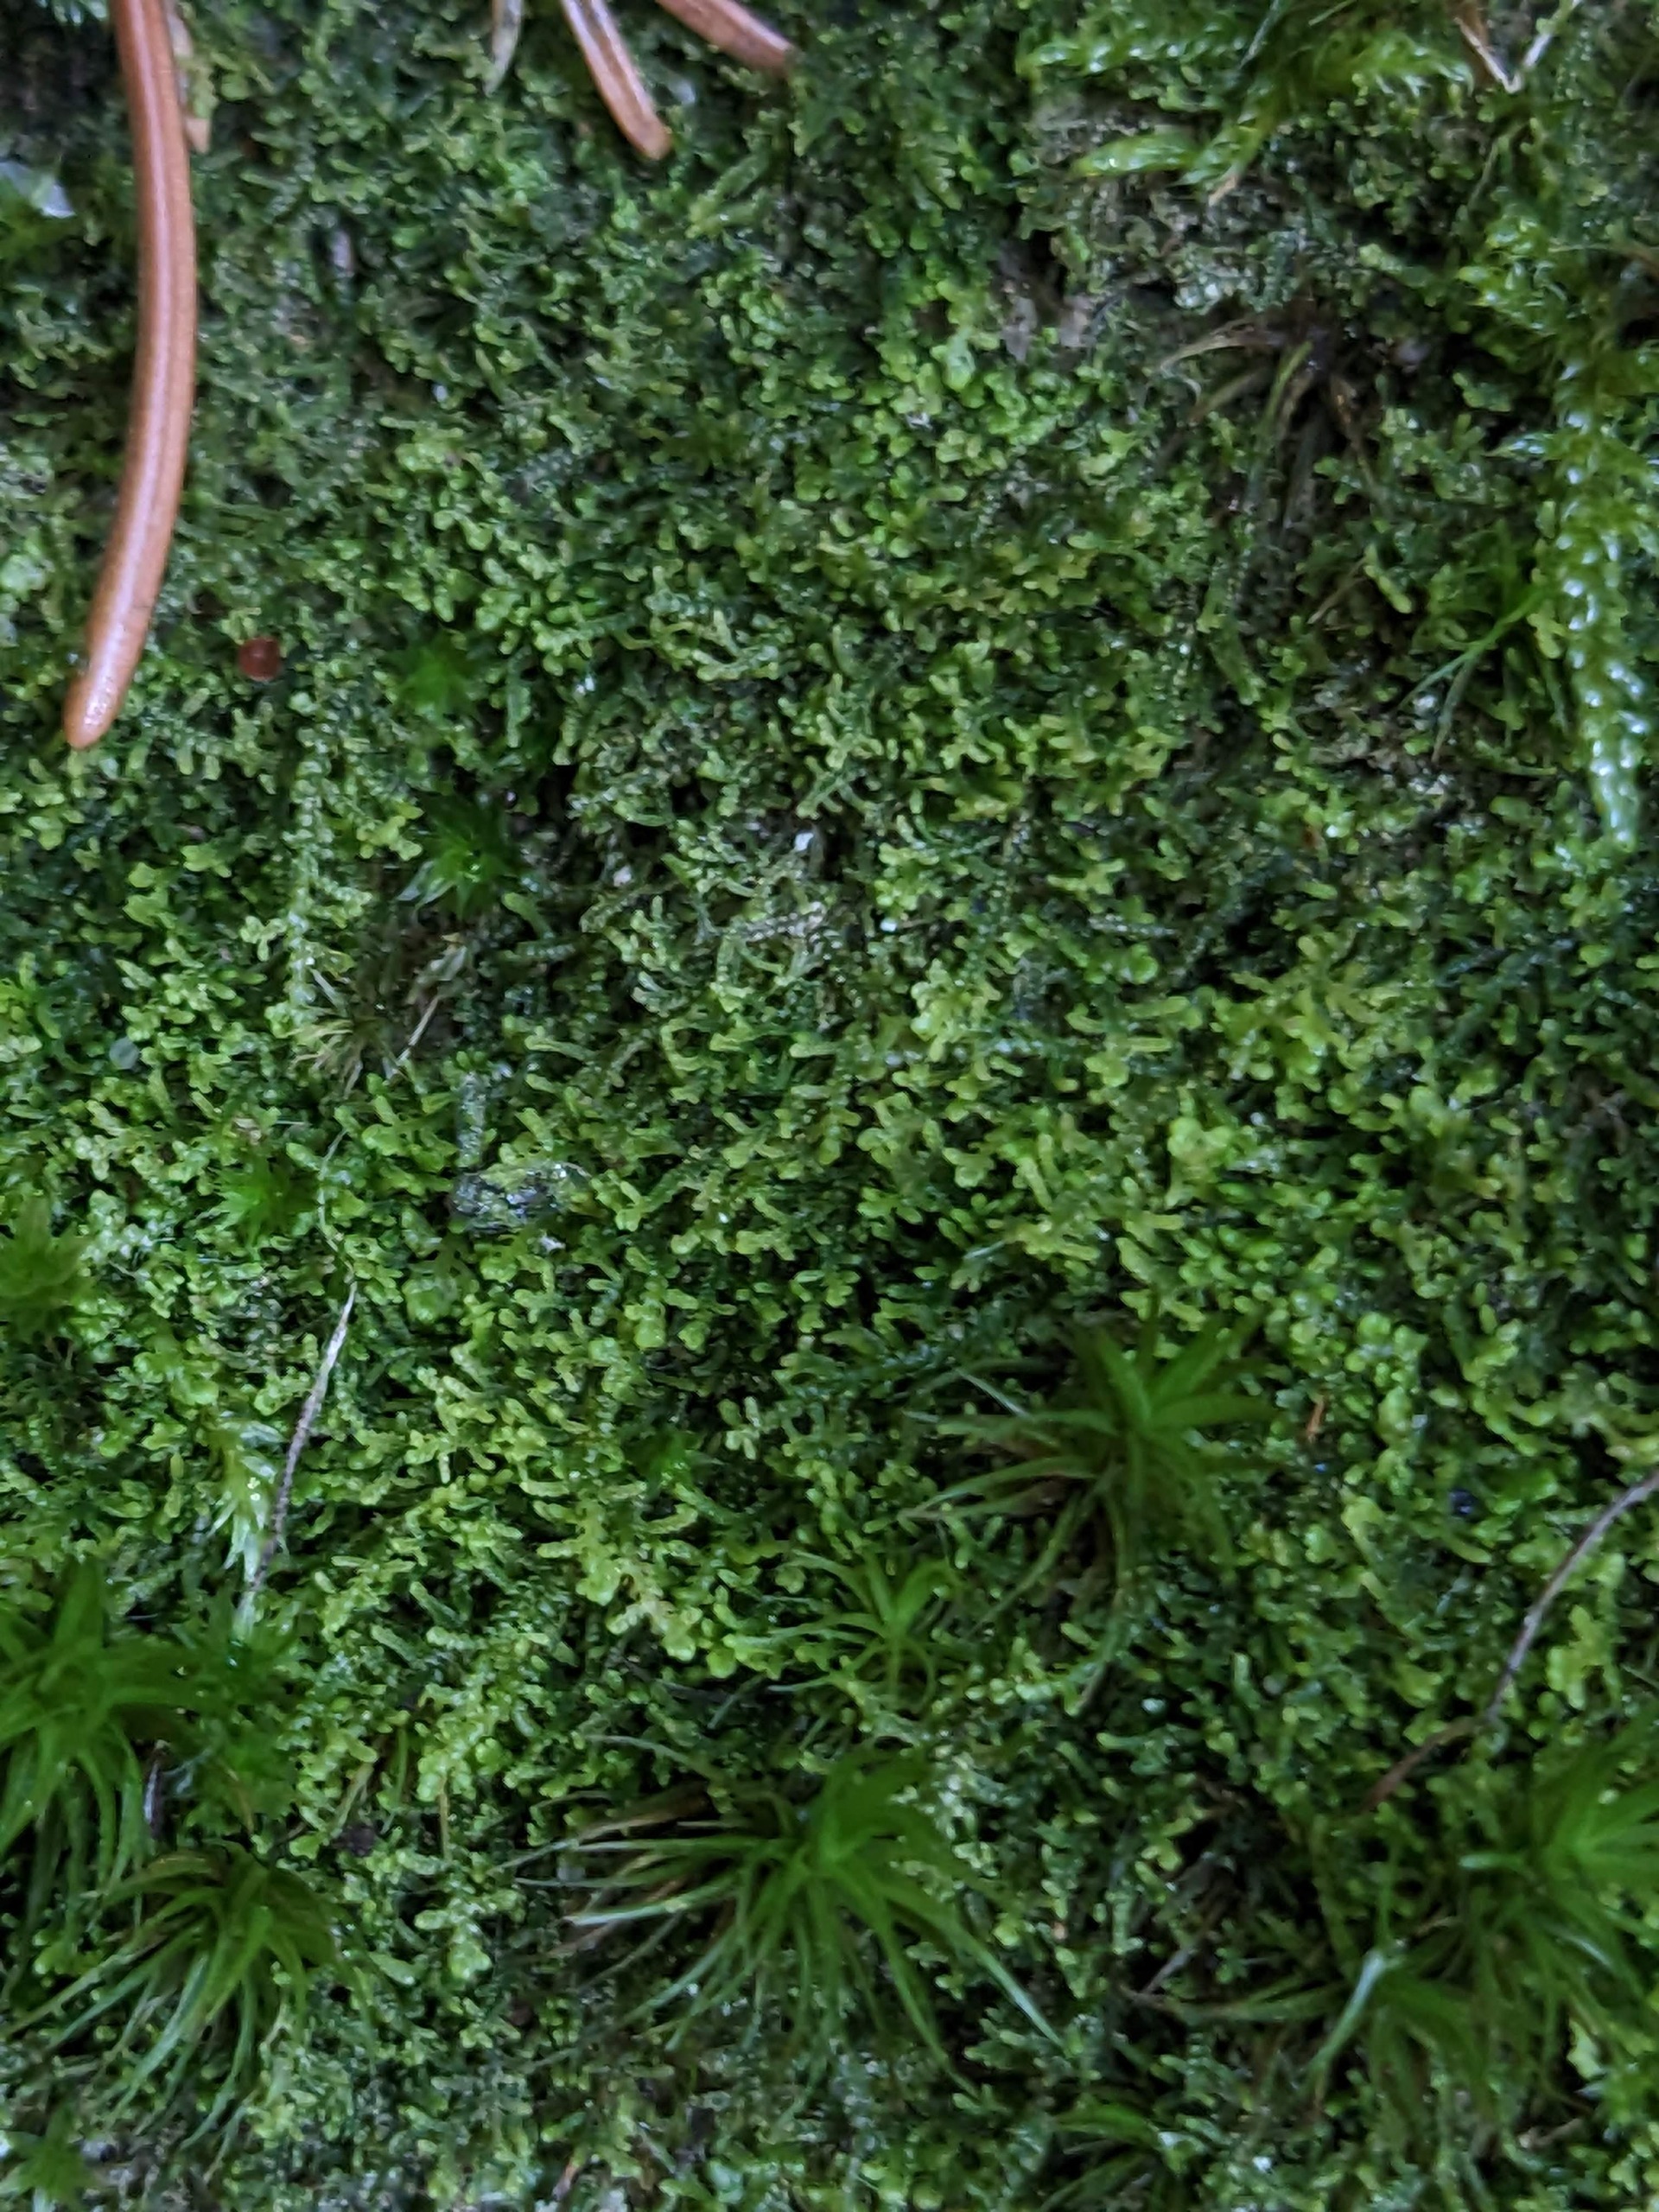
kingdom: Plantae
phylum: Marchantiophyta
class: Jungermanniopsida
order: Jungermanniales
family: Lepidoziaceae
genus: Lepidozia
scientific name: Lepidozia reptans
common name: Krybende fingermos
